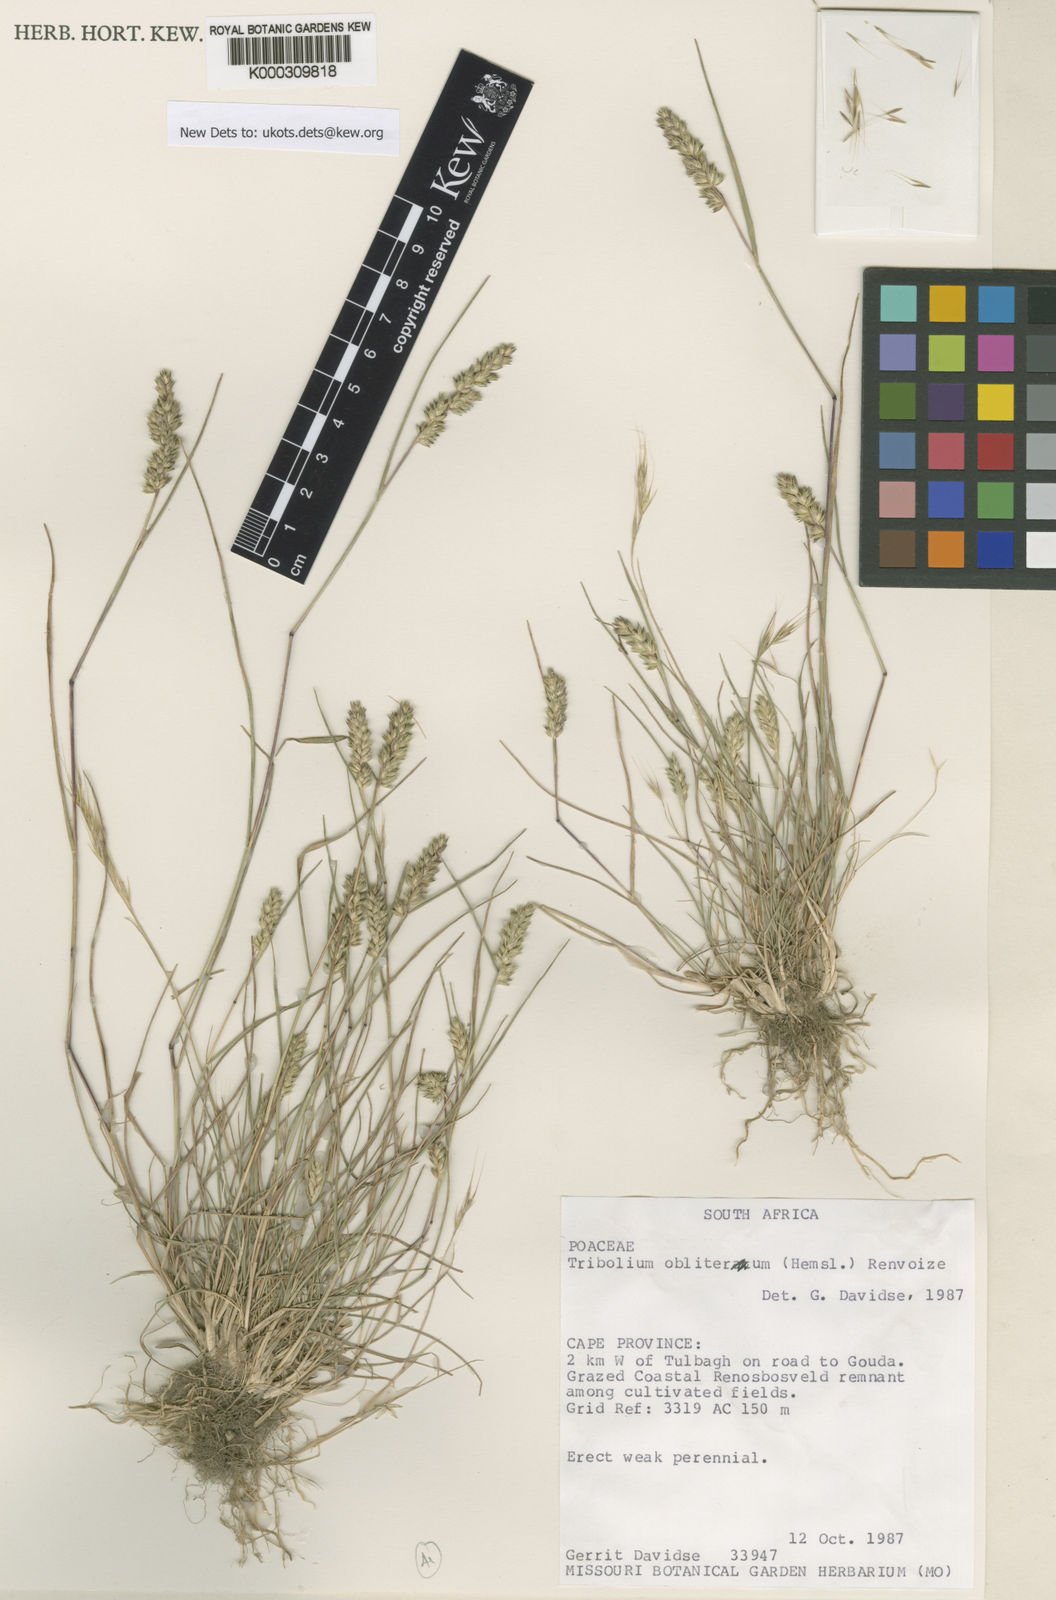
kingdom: Plantae
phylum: Tracheophyta
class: Liliopsida
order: Poales
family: Poaceae
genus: Tribolium
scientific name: Tribolium obliterum
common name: Capetown grass
